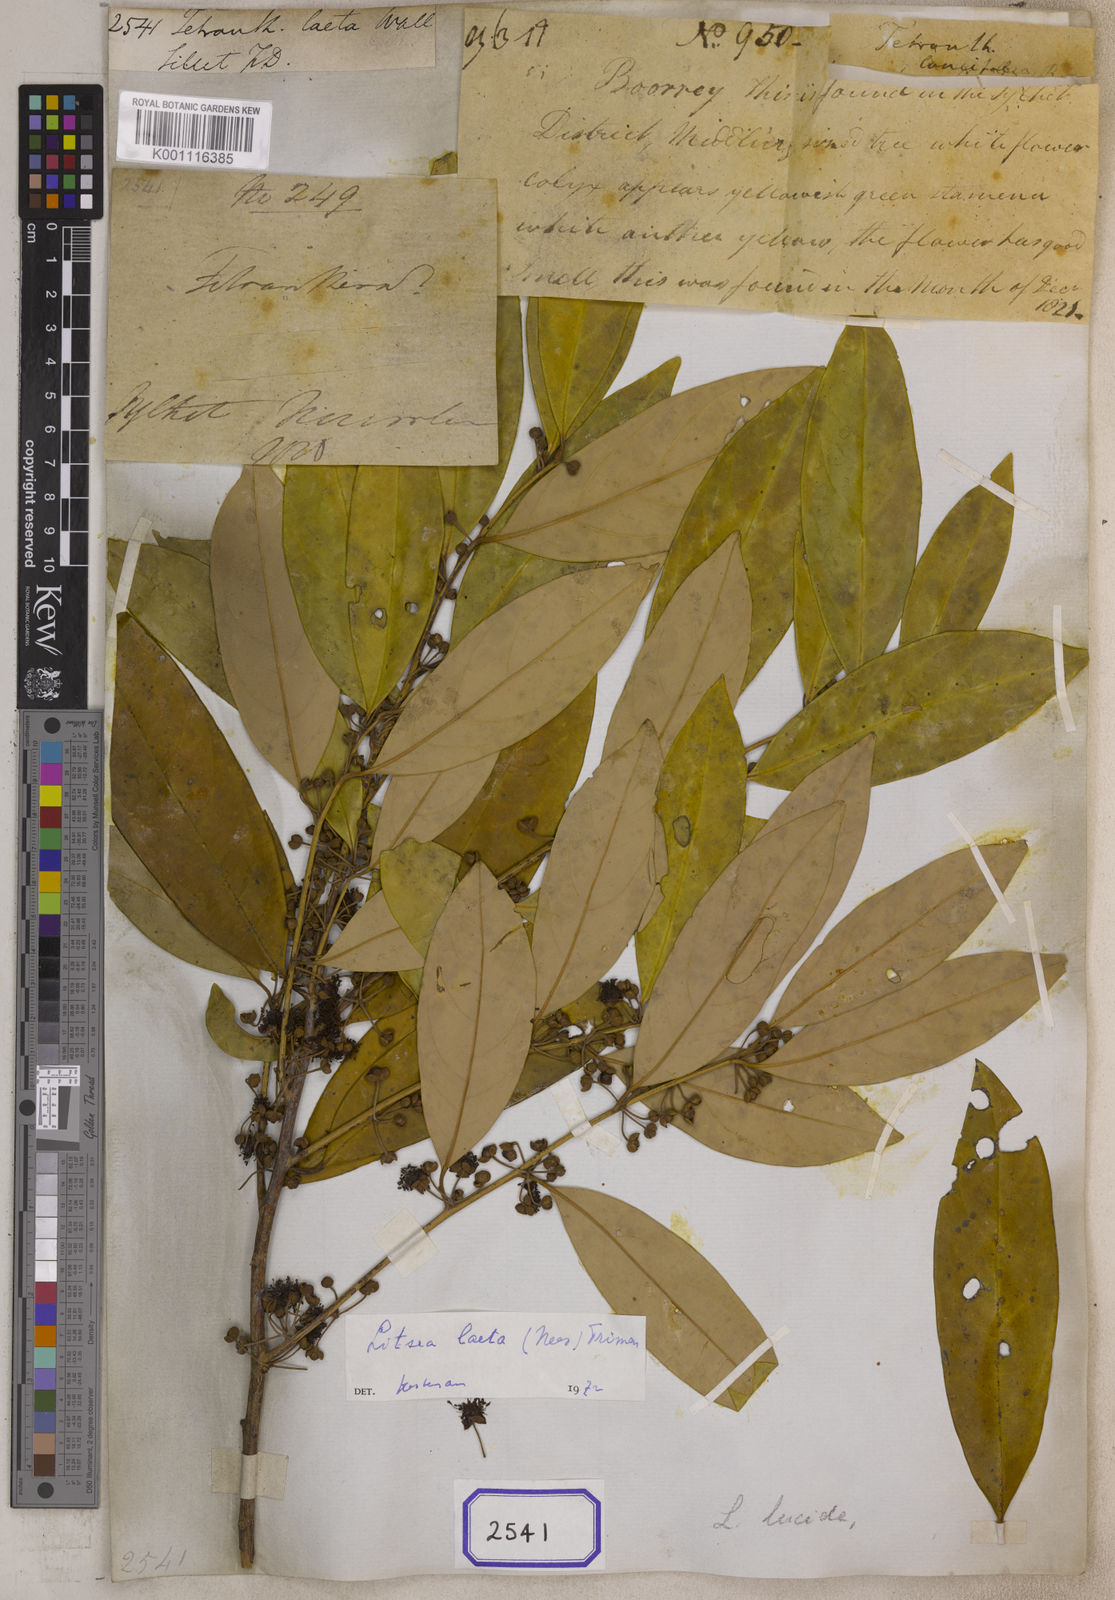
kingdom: Plantae
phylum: Tracheophyta
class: Magnoliopsida
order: Laurales
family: Lauraceae
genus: Litsea
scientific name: Litsea
